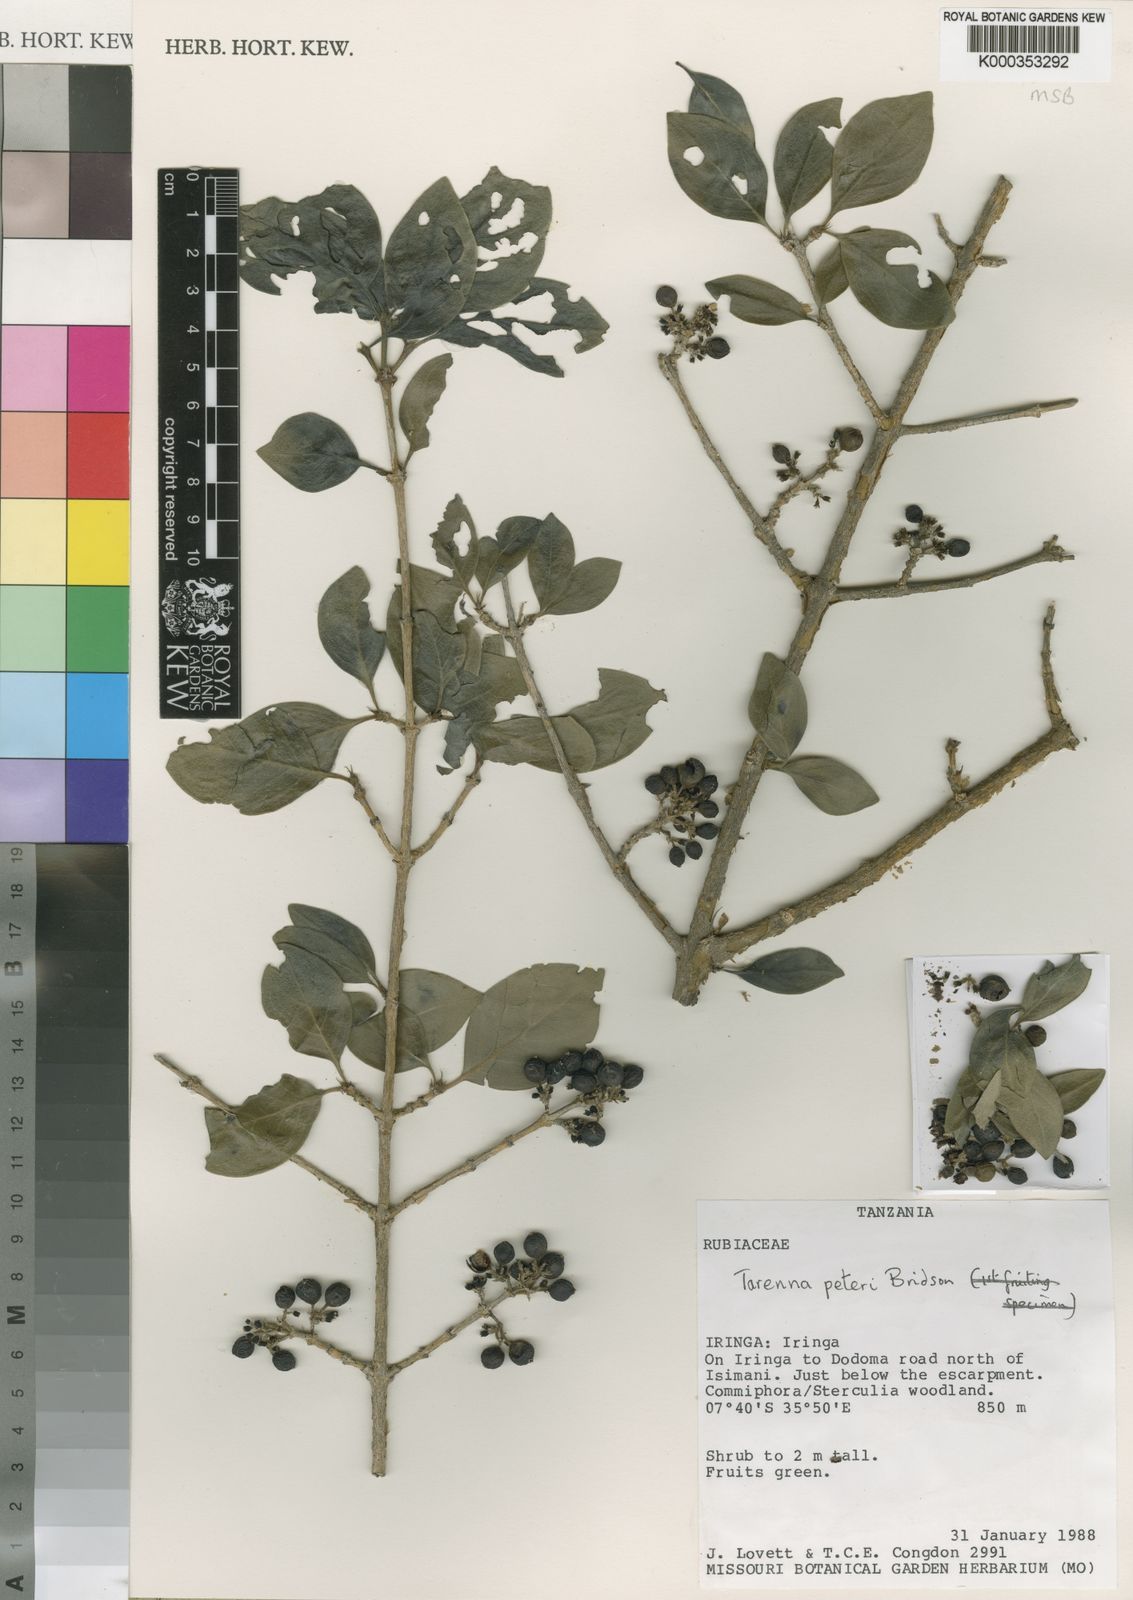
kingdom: Plantae
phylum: Tracheophyta
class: Magnoliopsida
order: Gentianales
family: Rubiaceae
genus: Coptosperma
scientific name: Coptosperma peteri
